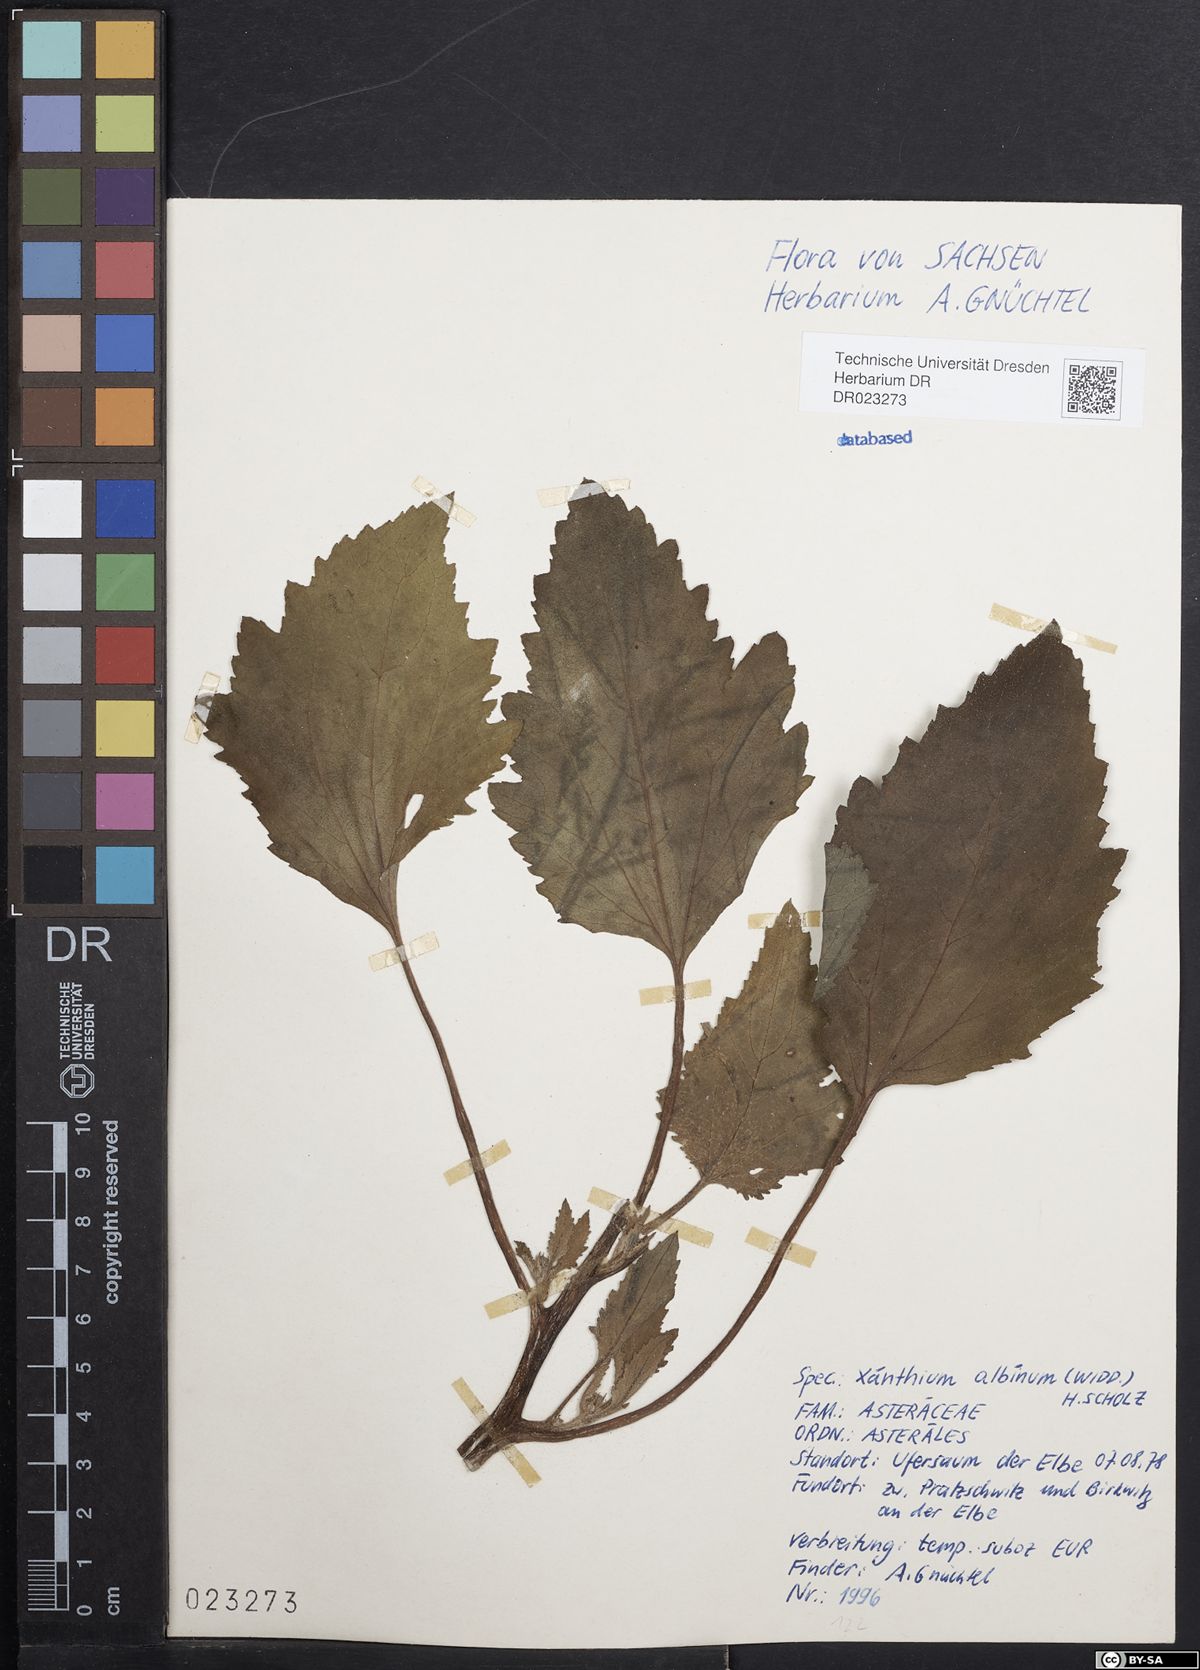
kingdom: Plantae
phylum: Tracheophyta
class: Magnoliopsida
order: Asterales
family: Asteraceae
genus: Xanthium
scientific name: Xanthium orientale
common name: Californian burr
